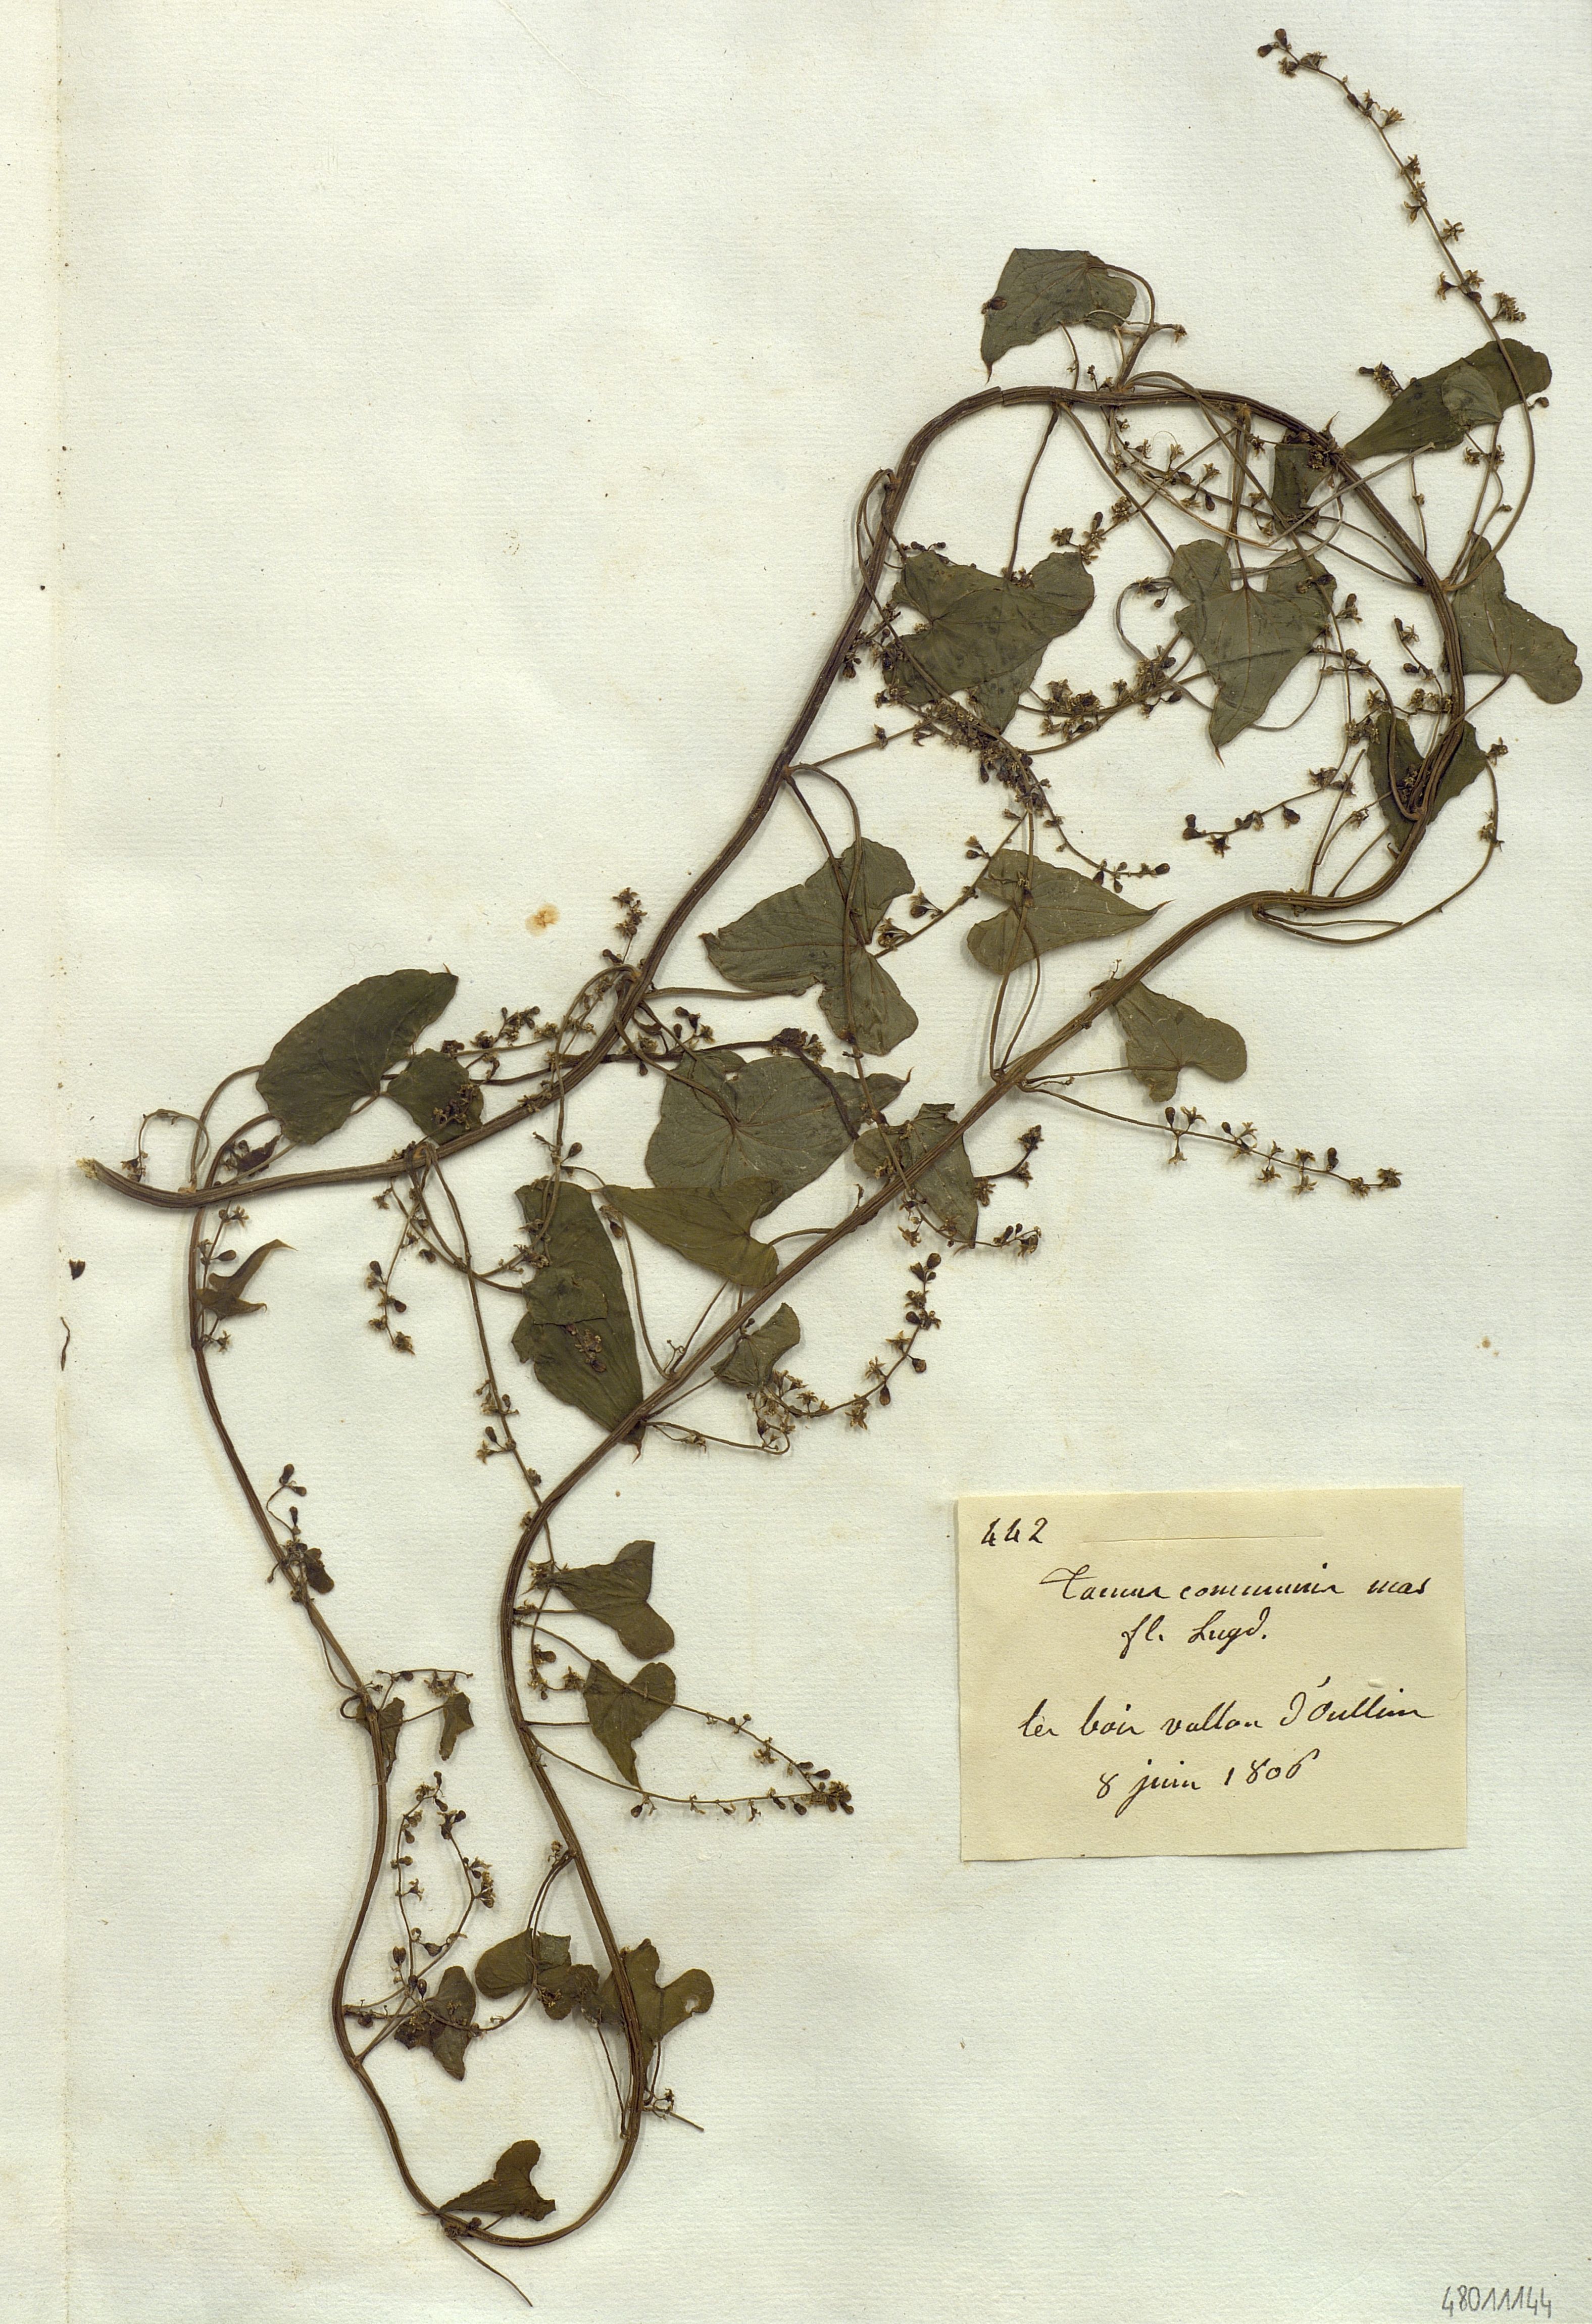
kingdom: Plantae
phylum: Tracheophyta
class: Liliopsida
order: Dioscoreales
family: Dioscoreaceae
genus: Dioscorea
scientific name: Dioscorea communis
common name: Black-bindweed
